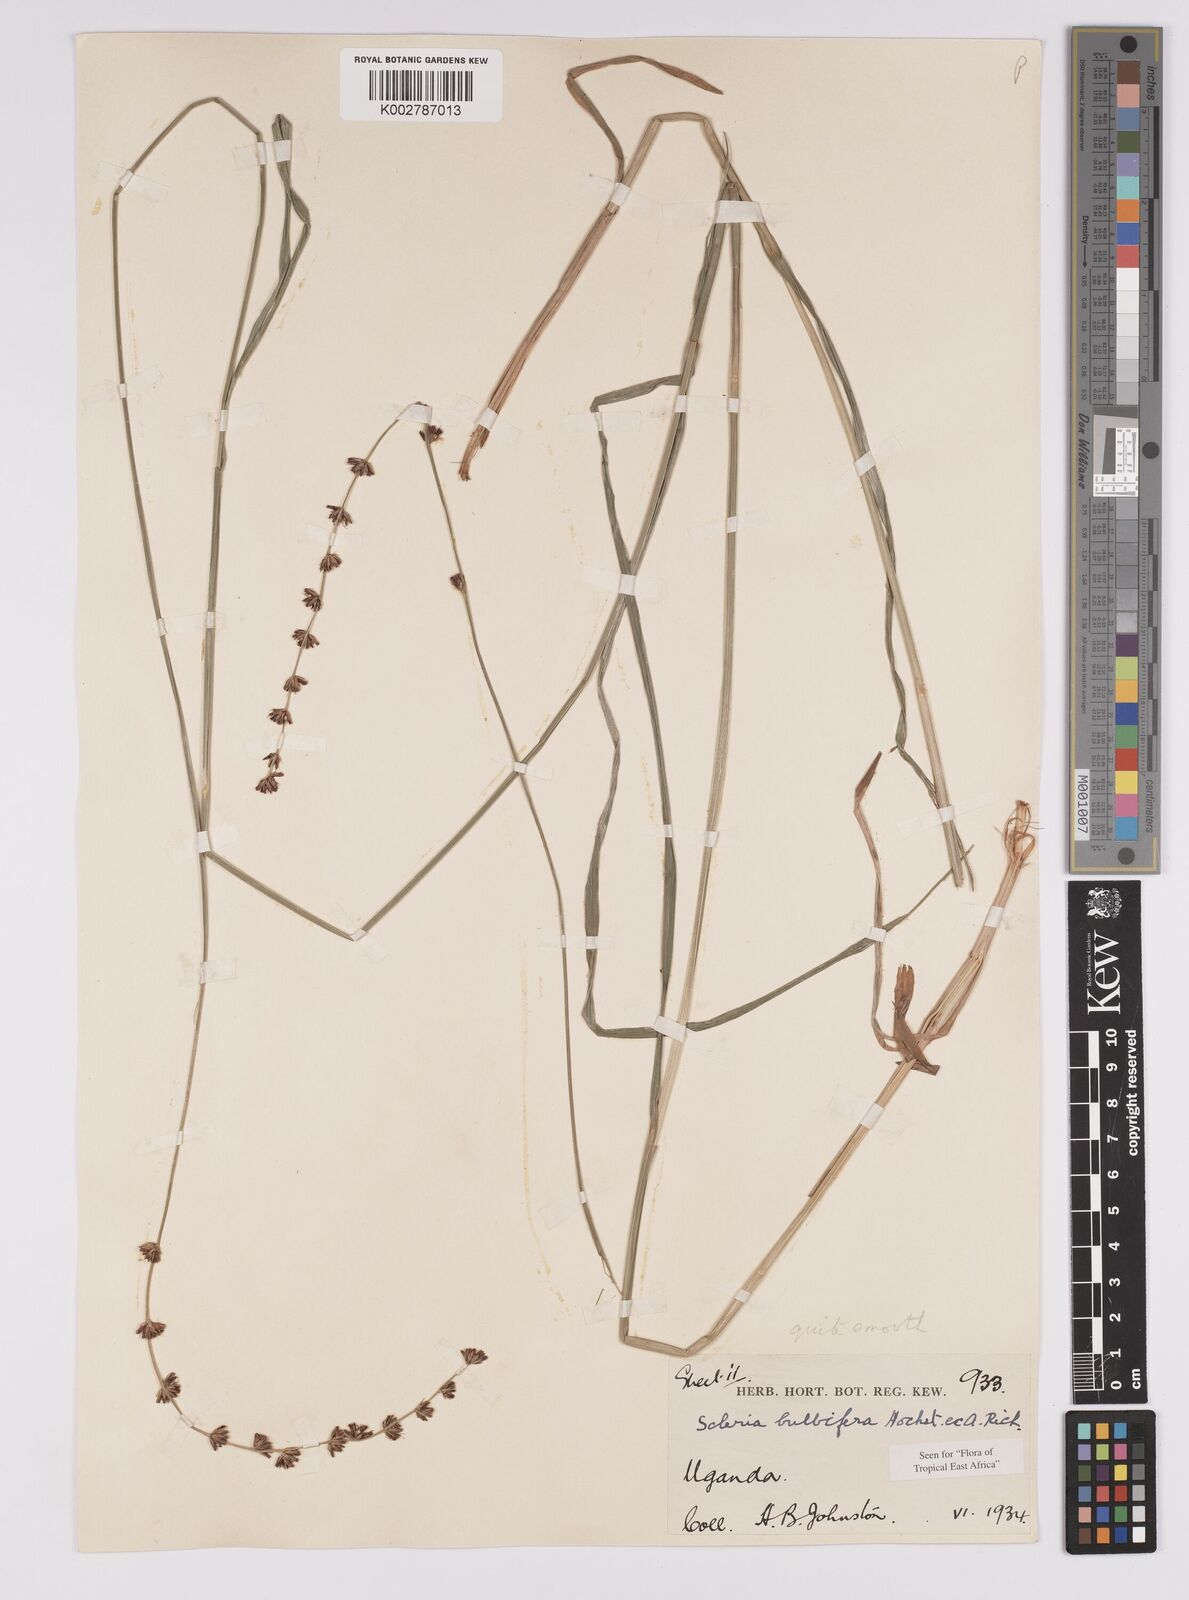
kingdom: Plantae
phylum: Tracheophyta
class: Liliopsida
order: Poales
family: Cyperaceae
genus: Scleria
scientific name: Scleria bulbifera
